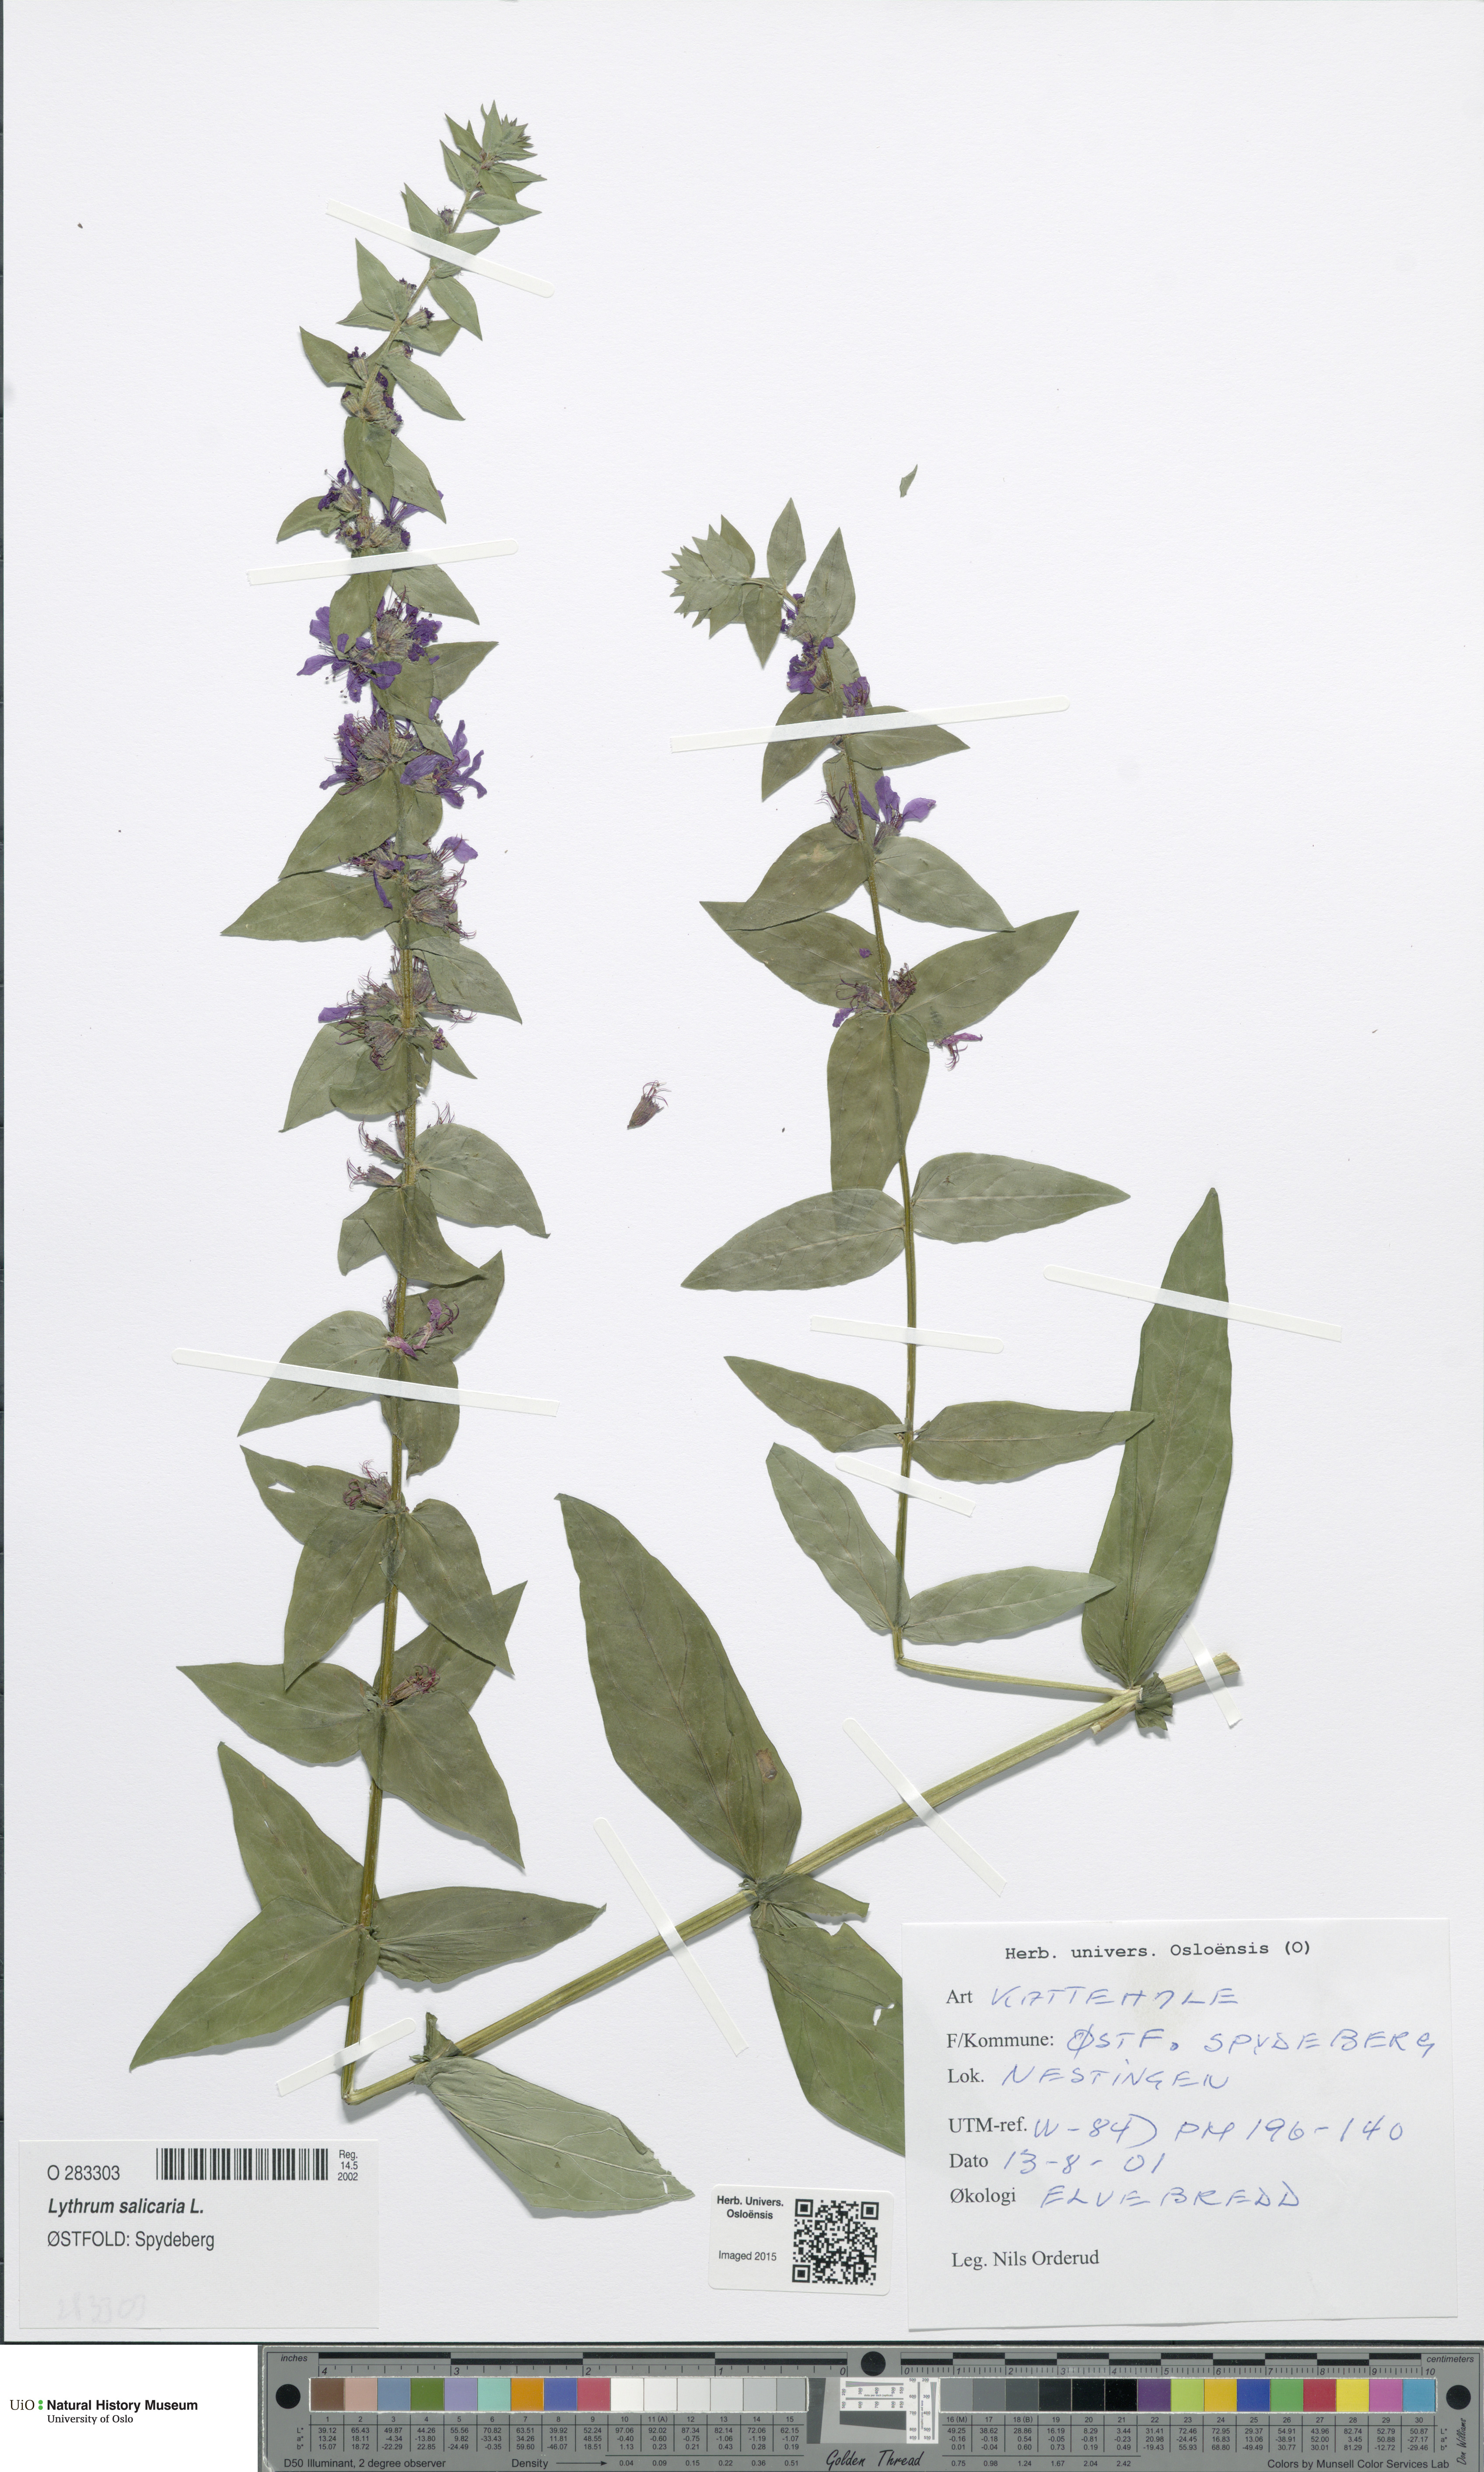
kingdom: Plantae
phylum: Tracheophyta
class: Magnoliopsida
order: Myrtales
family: Lythraceae
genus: Lythrum
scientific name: Lythrum salicaria
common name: Purple loosestrife
